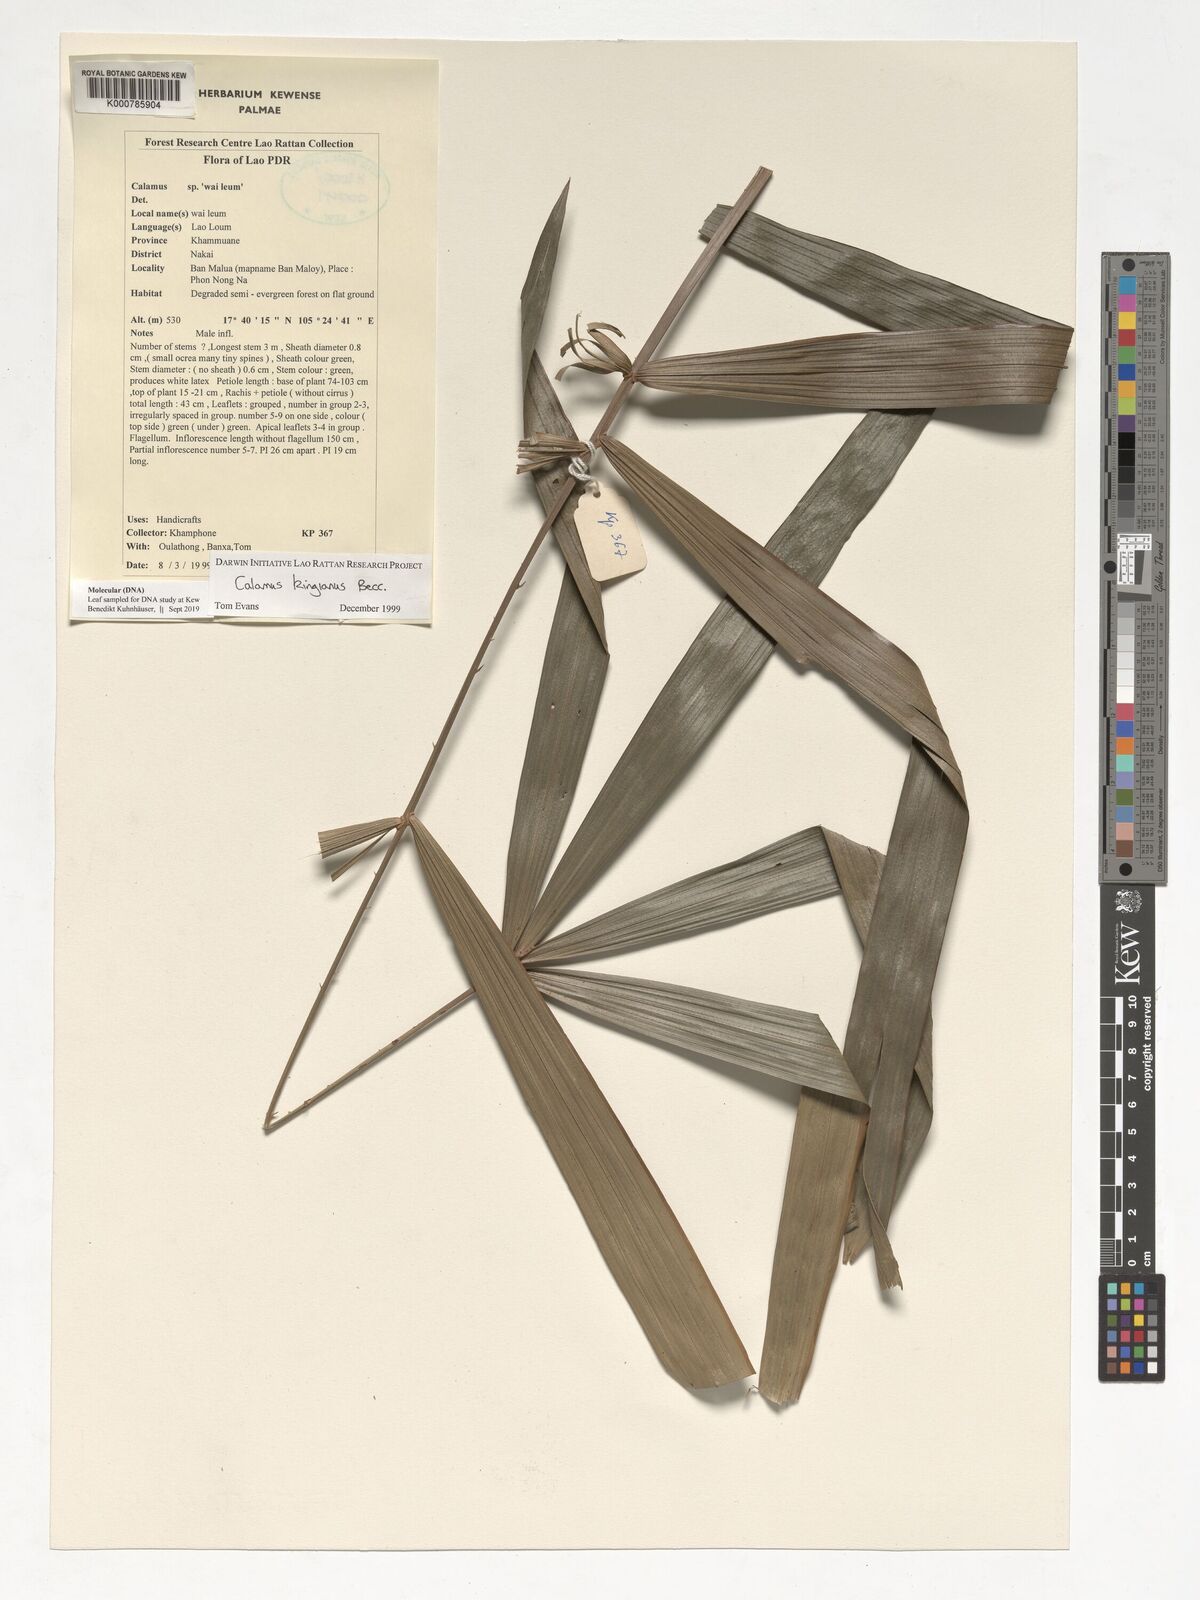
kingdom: Plantae
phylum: Tracheophyta
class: Liliopsida
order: Arecales
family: Arecaceae
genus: Calamus
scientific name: Calamus kingianus
